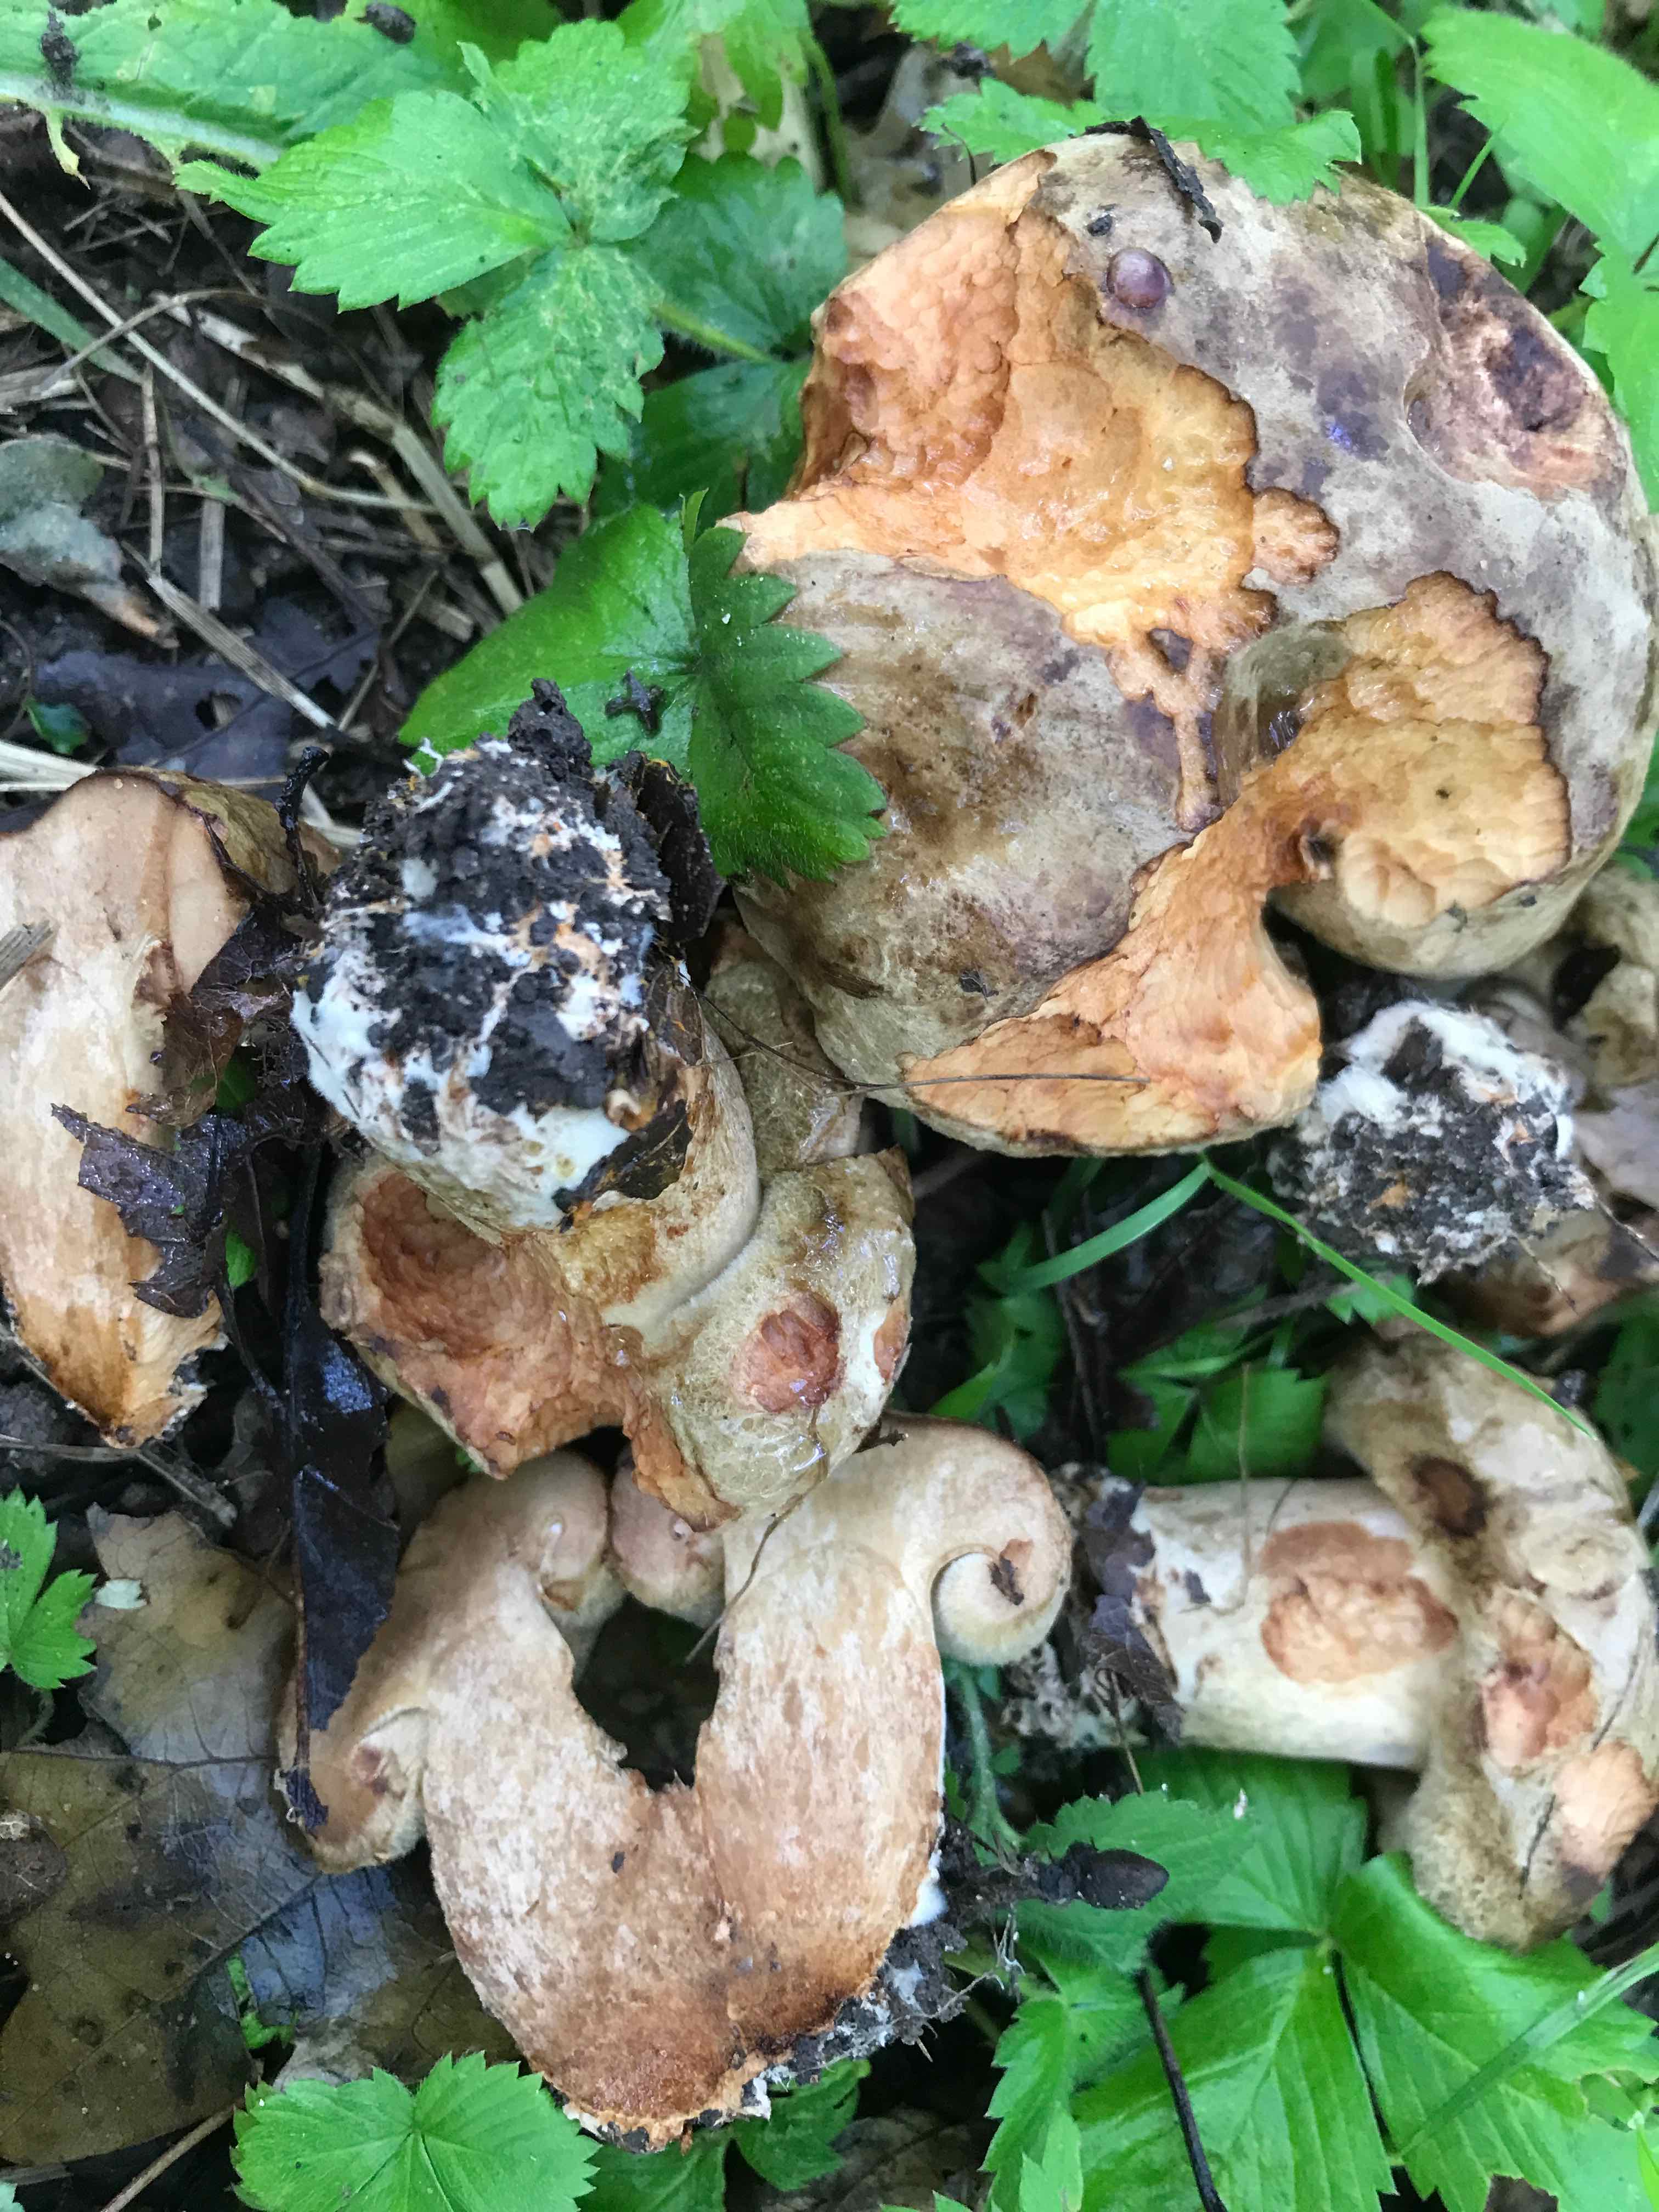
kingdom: Fungi
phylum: Basidiomycota
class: Agaricomycetes
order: Boletales
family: Paxillaceae
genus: Paxillus
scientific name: Paxillus
